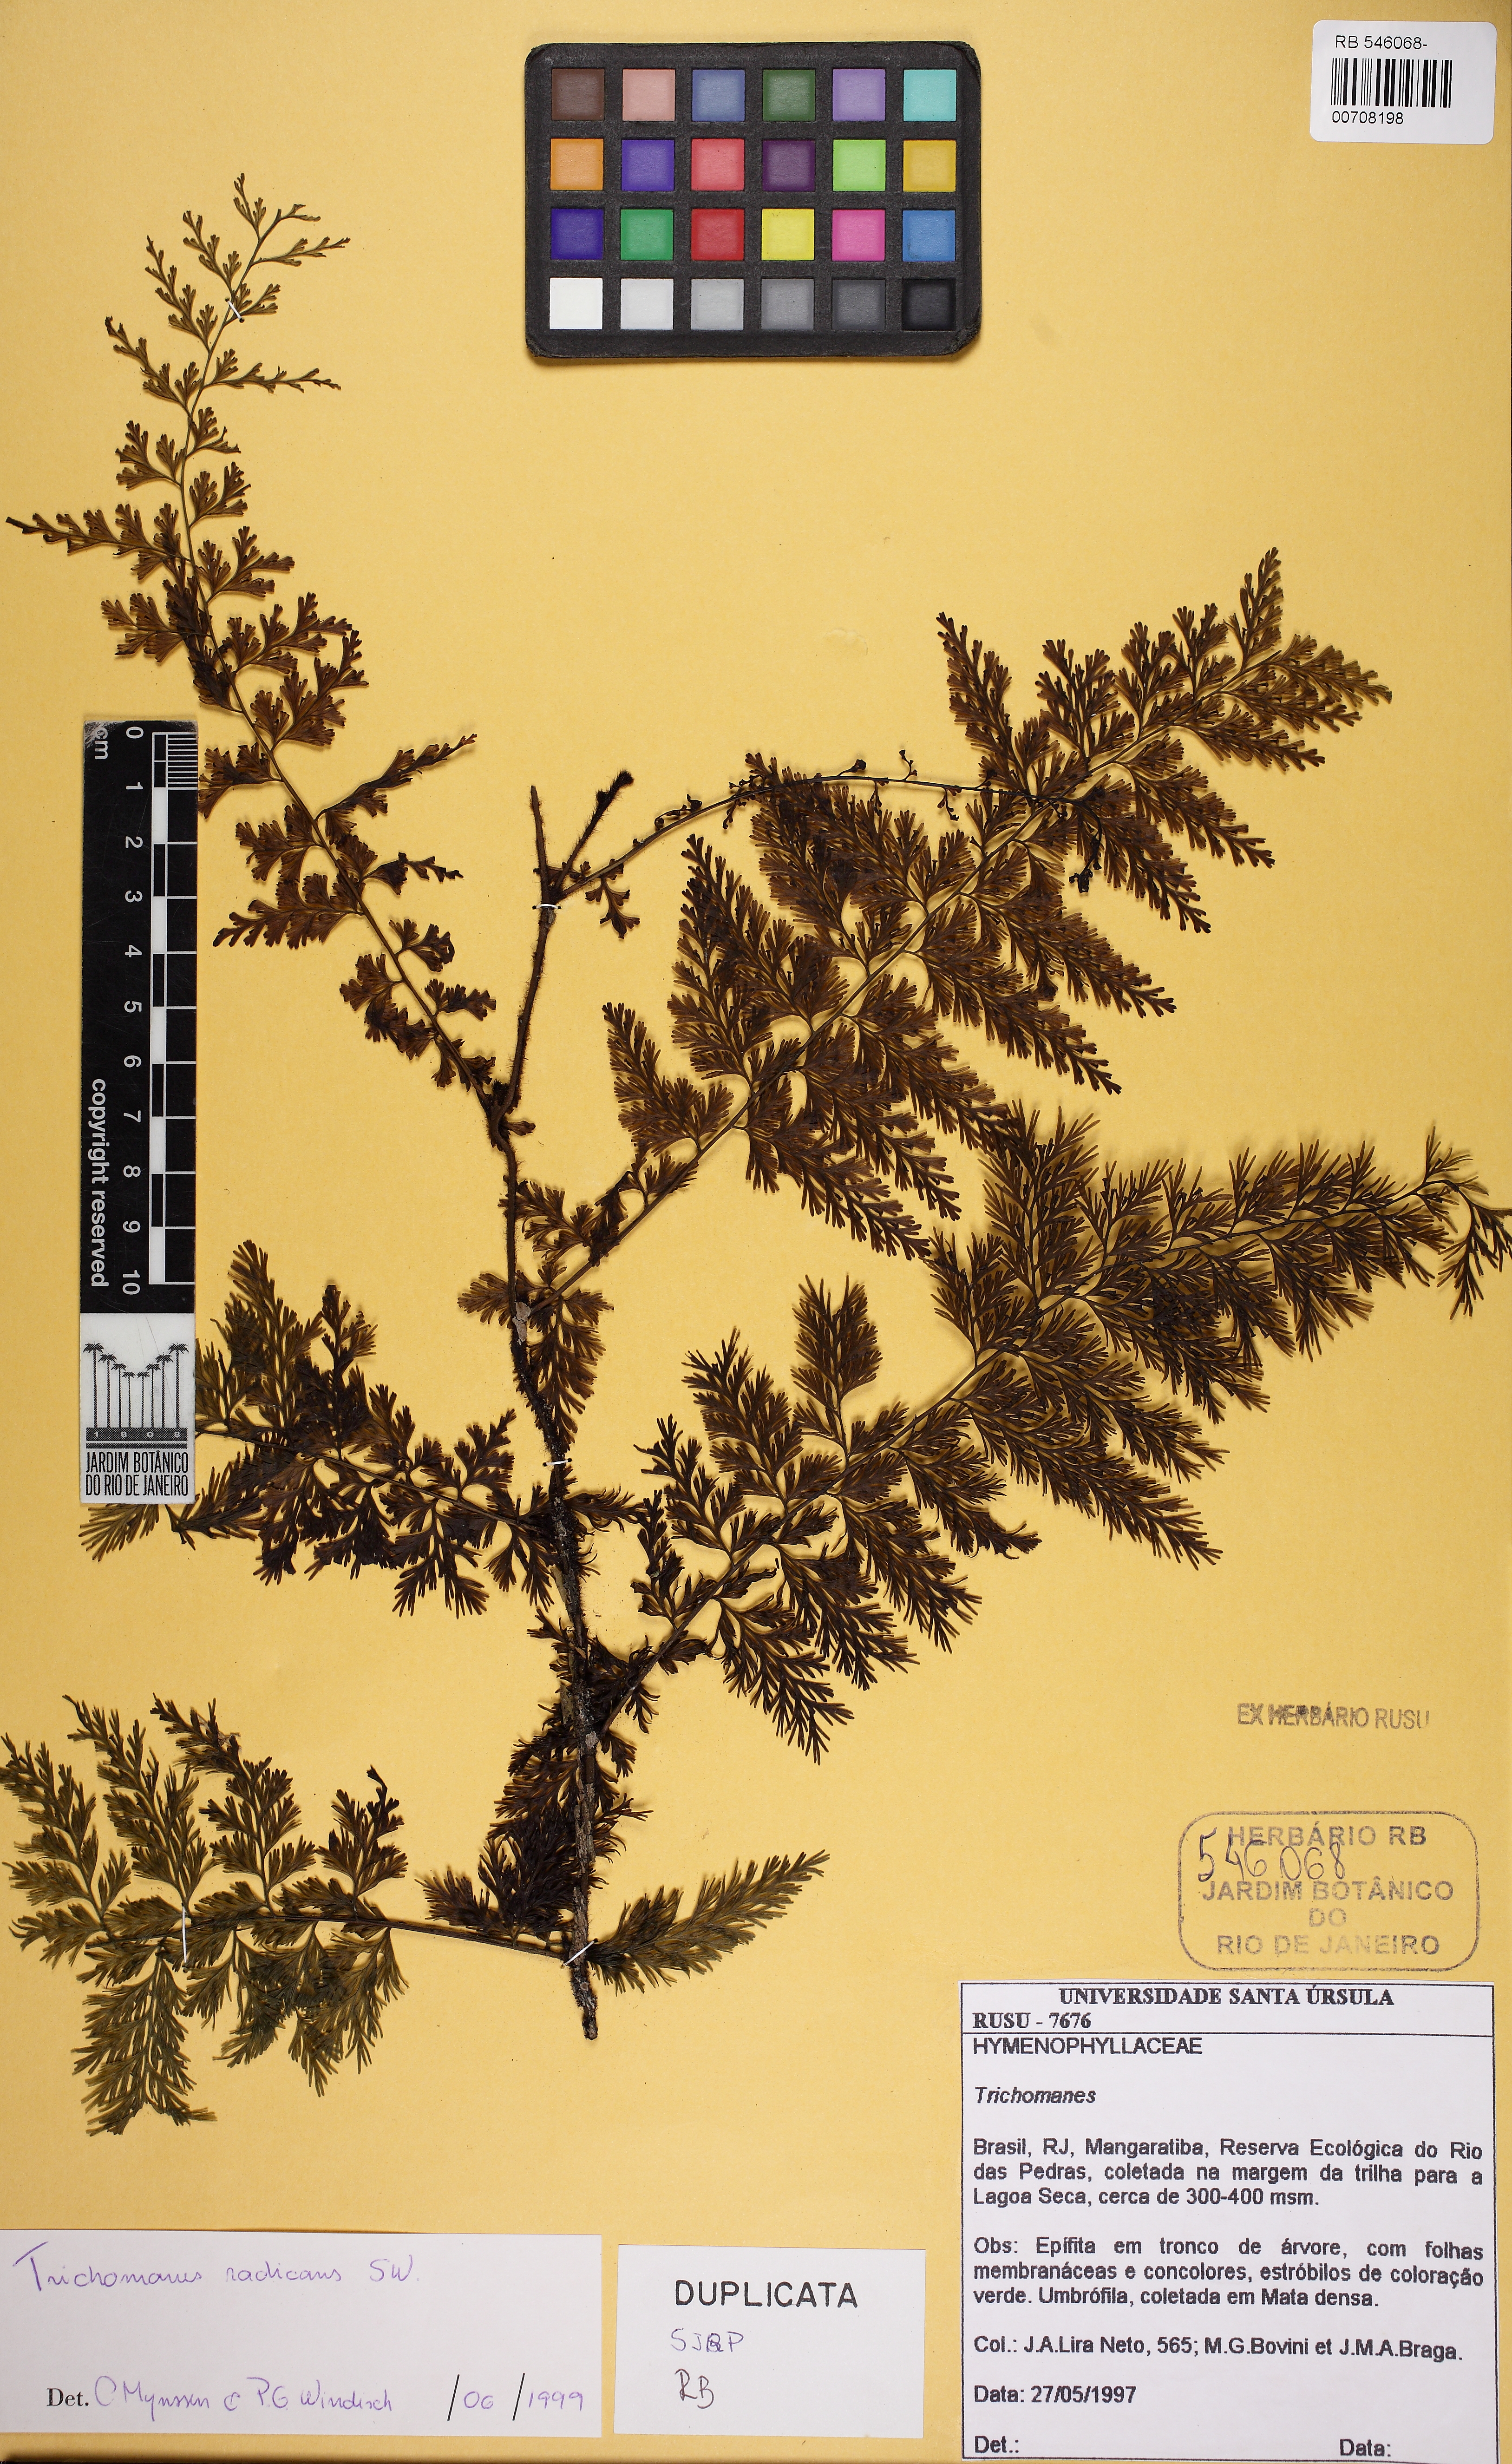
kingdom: Plantae
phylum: Tracheophyta
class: Polypodiopsida
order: Hymenophyllales
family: Hymenophyllaceae
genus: Vandenboschia
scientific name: Vandenboschia radicans
